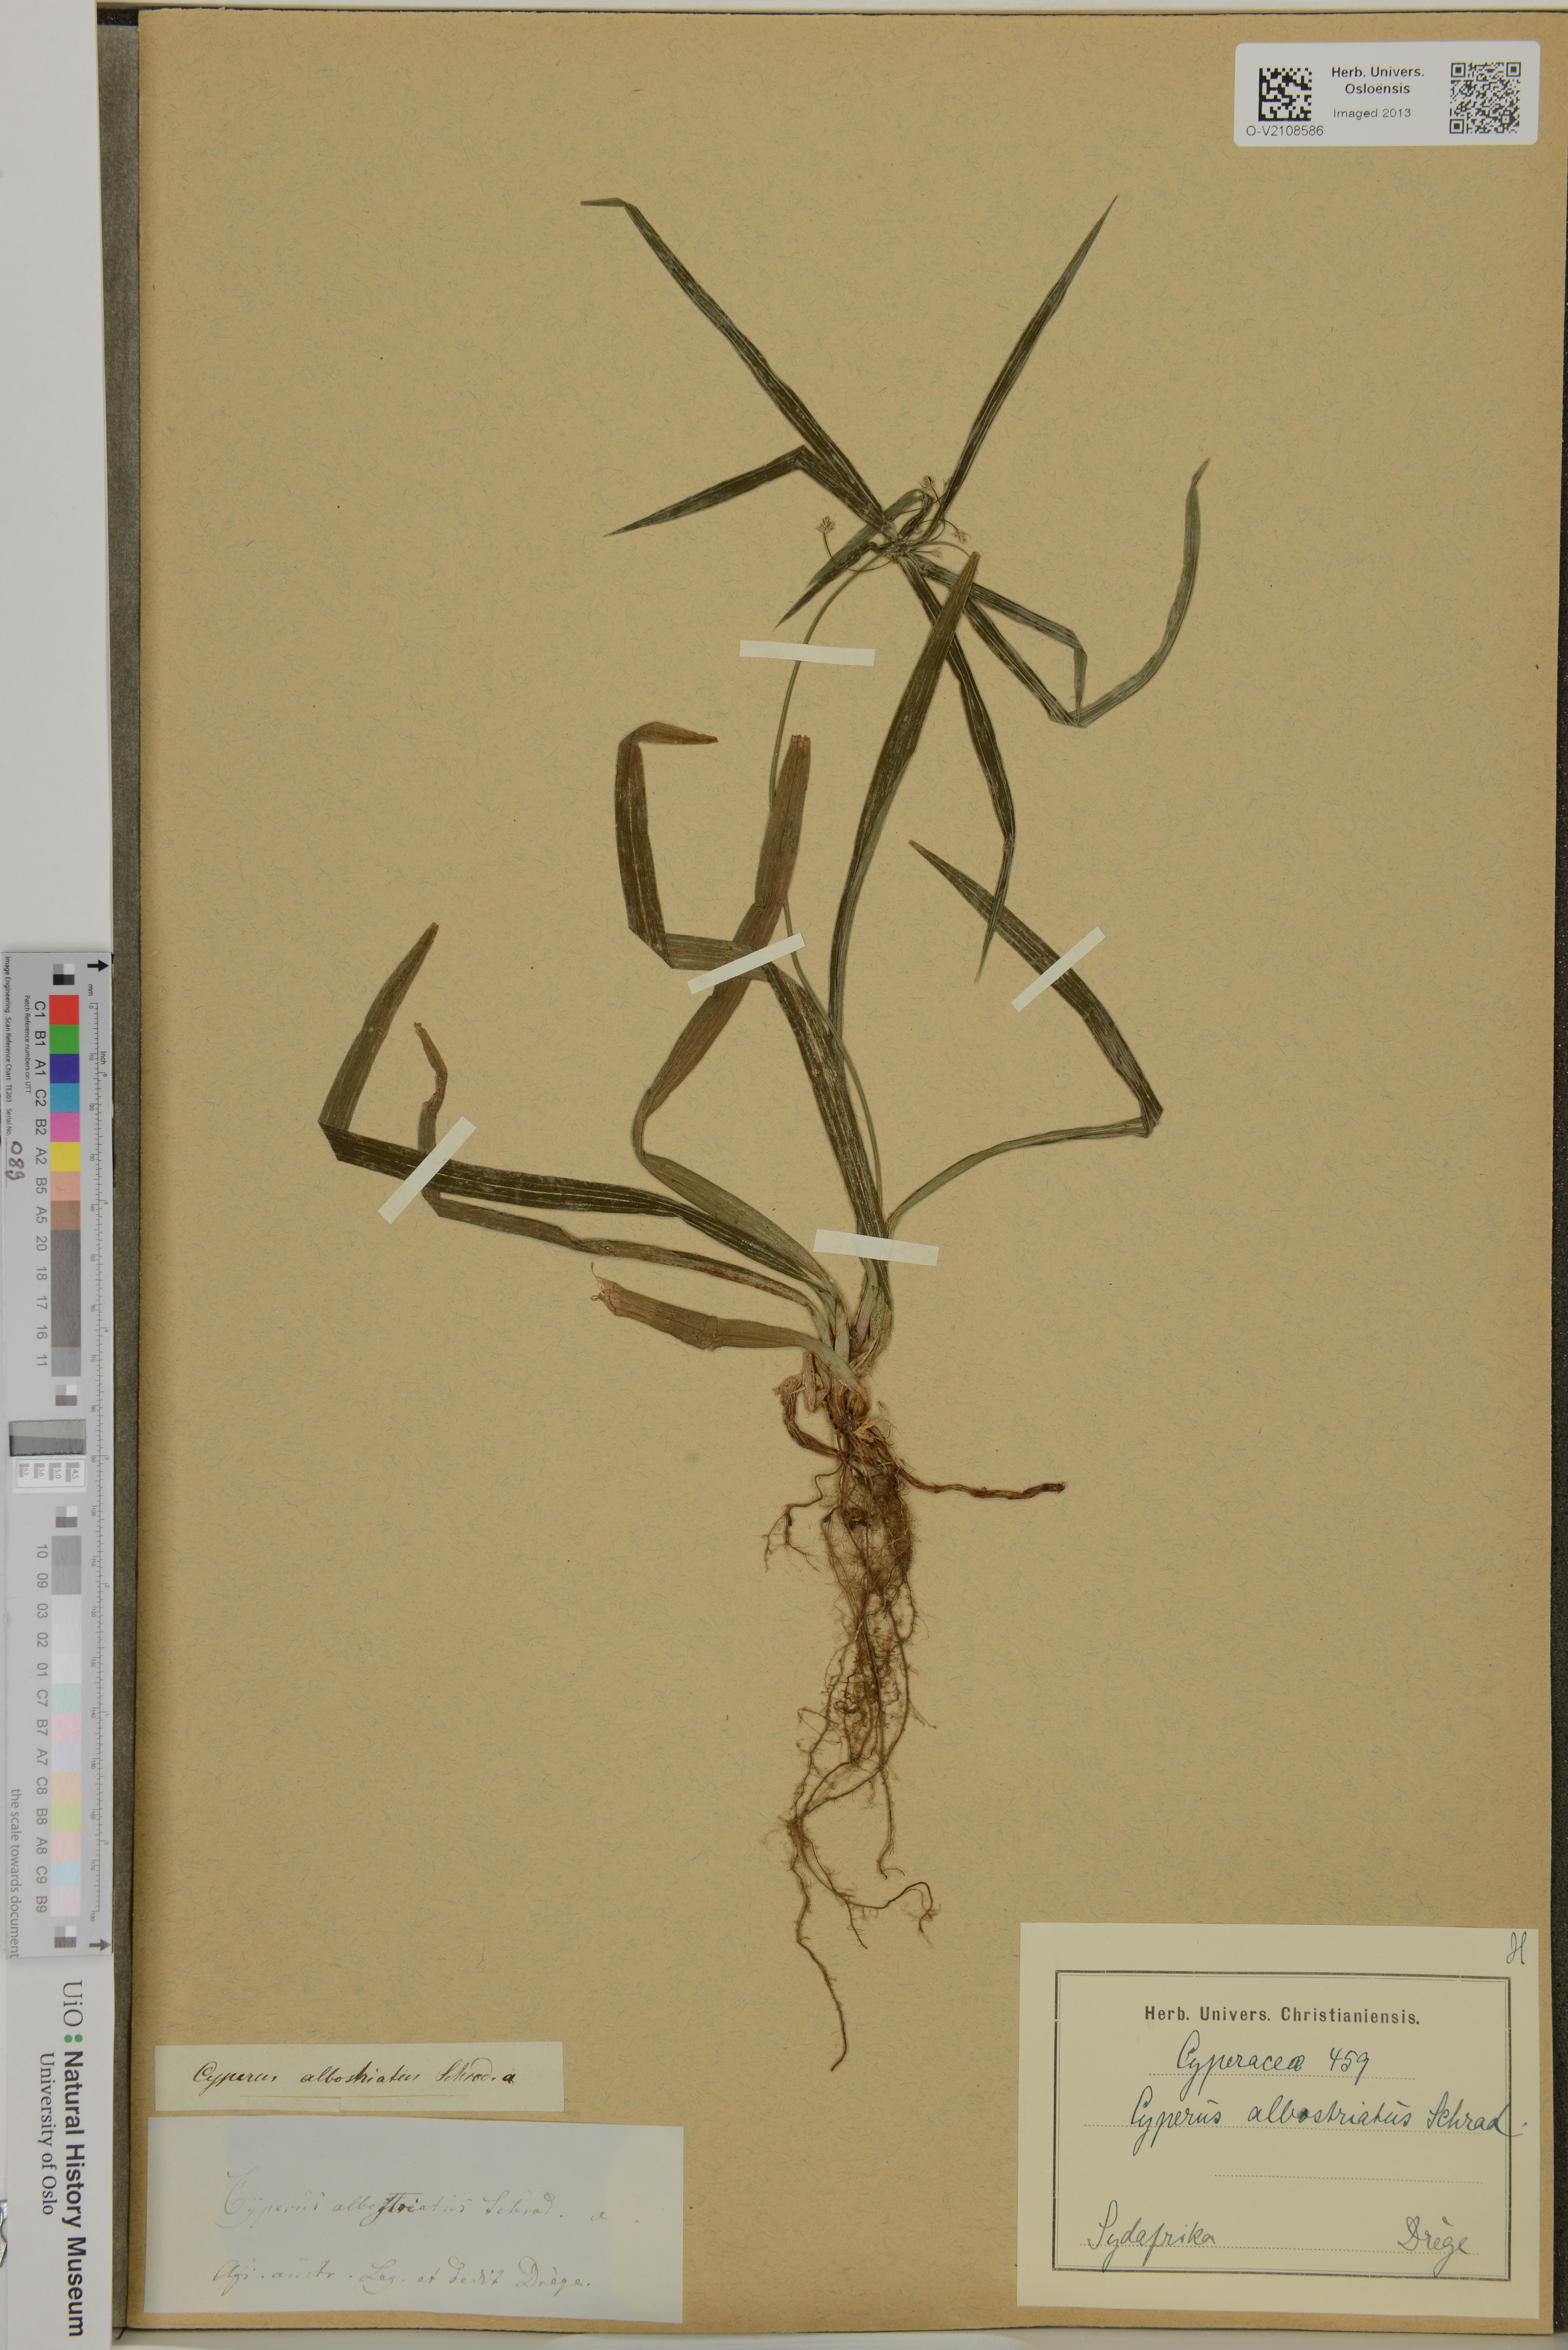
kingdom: Plantae
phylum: Tracheophyta
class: Liliopsida
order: Poales
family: Cyperaceae
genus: Cyperus
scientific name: Cyperus albostriatus
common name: Dwarf umbrella-grass
